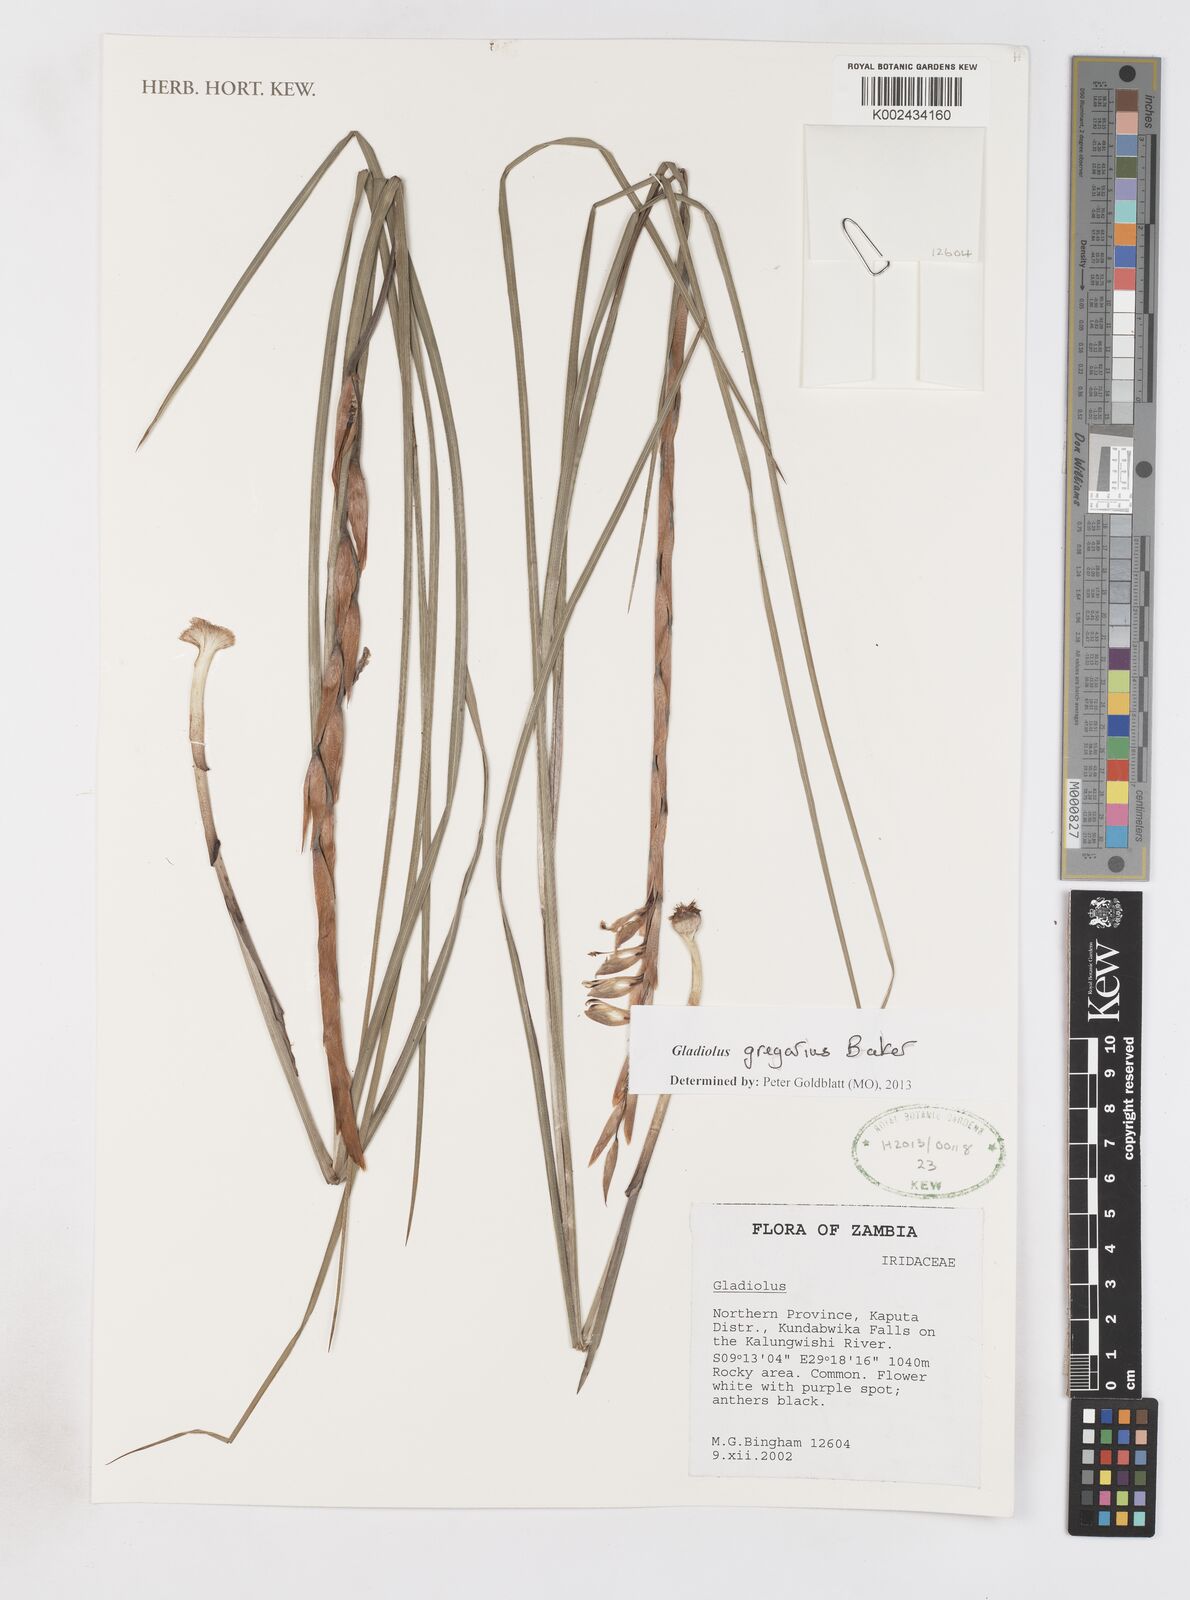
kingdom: Plantae
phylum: Tracheophyta
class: Liliopsida
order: Asparagales
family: Iridaceae
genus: Gladiolus
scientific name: Gladiolus gregarius
